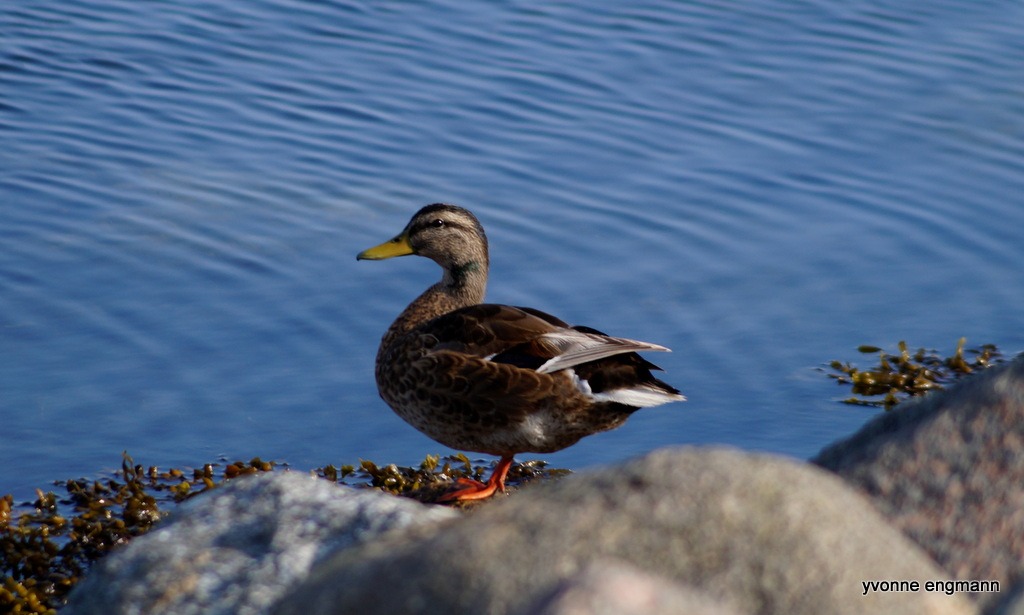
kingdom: Animalia
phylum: Chordata
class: Aves
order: Anseriformes
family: Anatidae
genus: Anas
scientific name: Anas platyrhynchos
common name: Gråand
